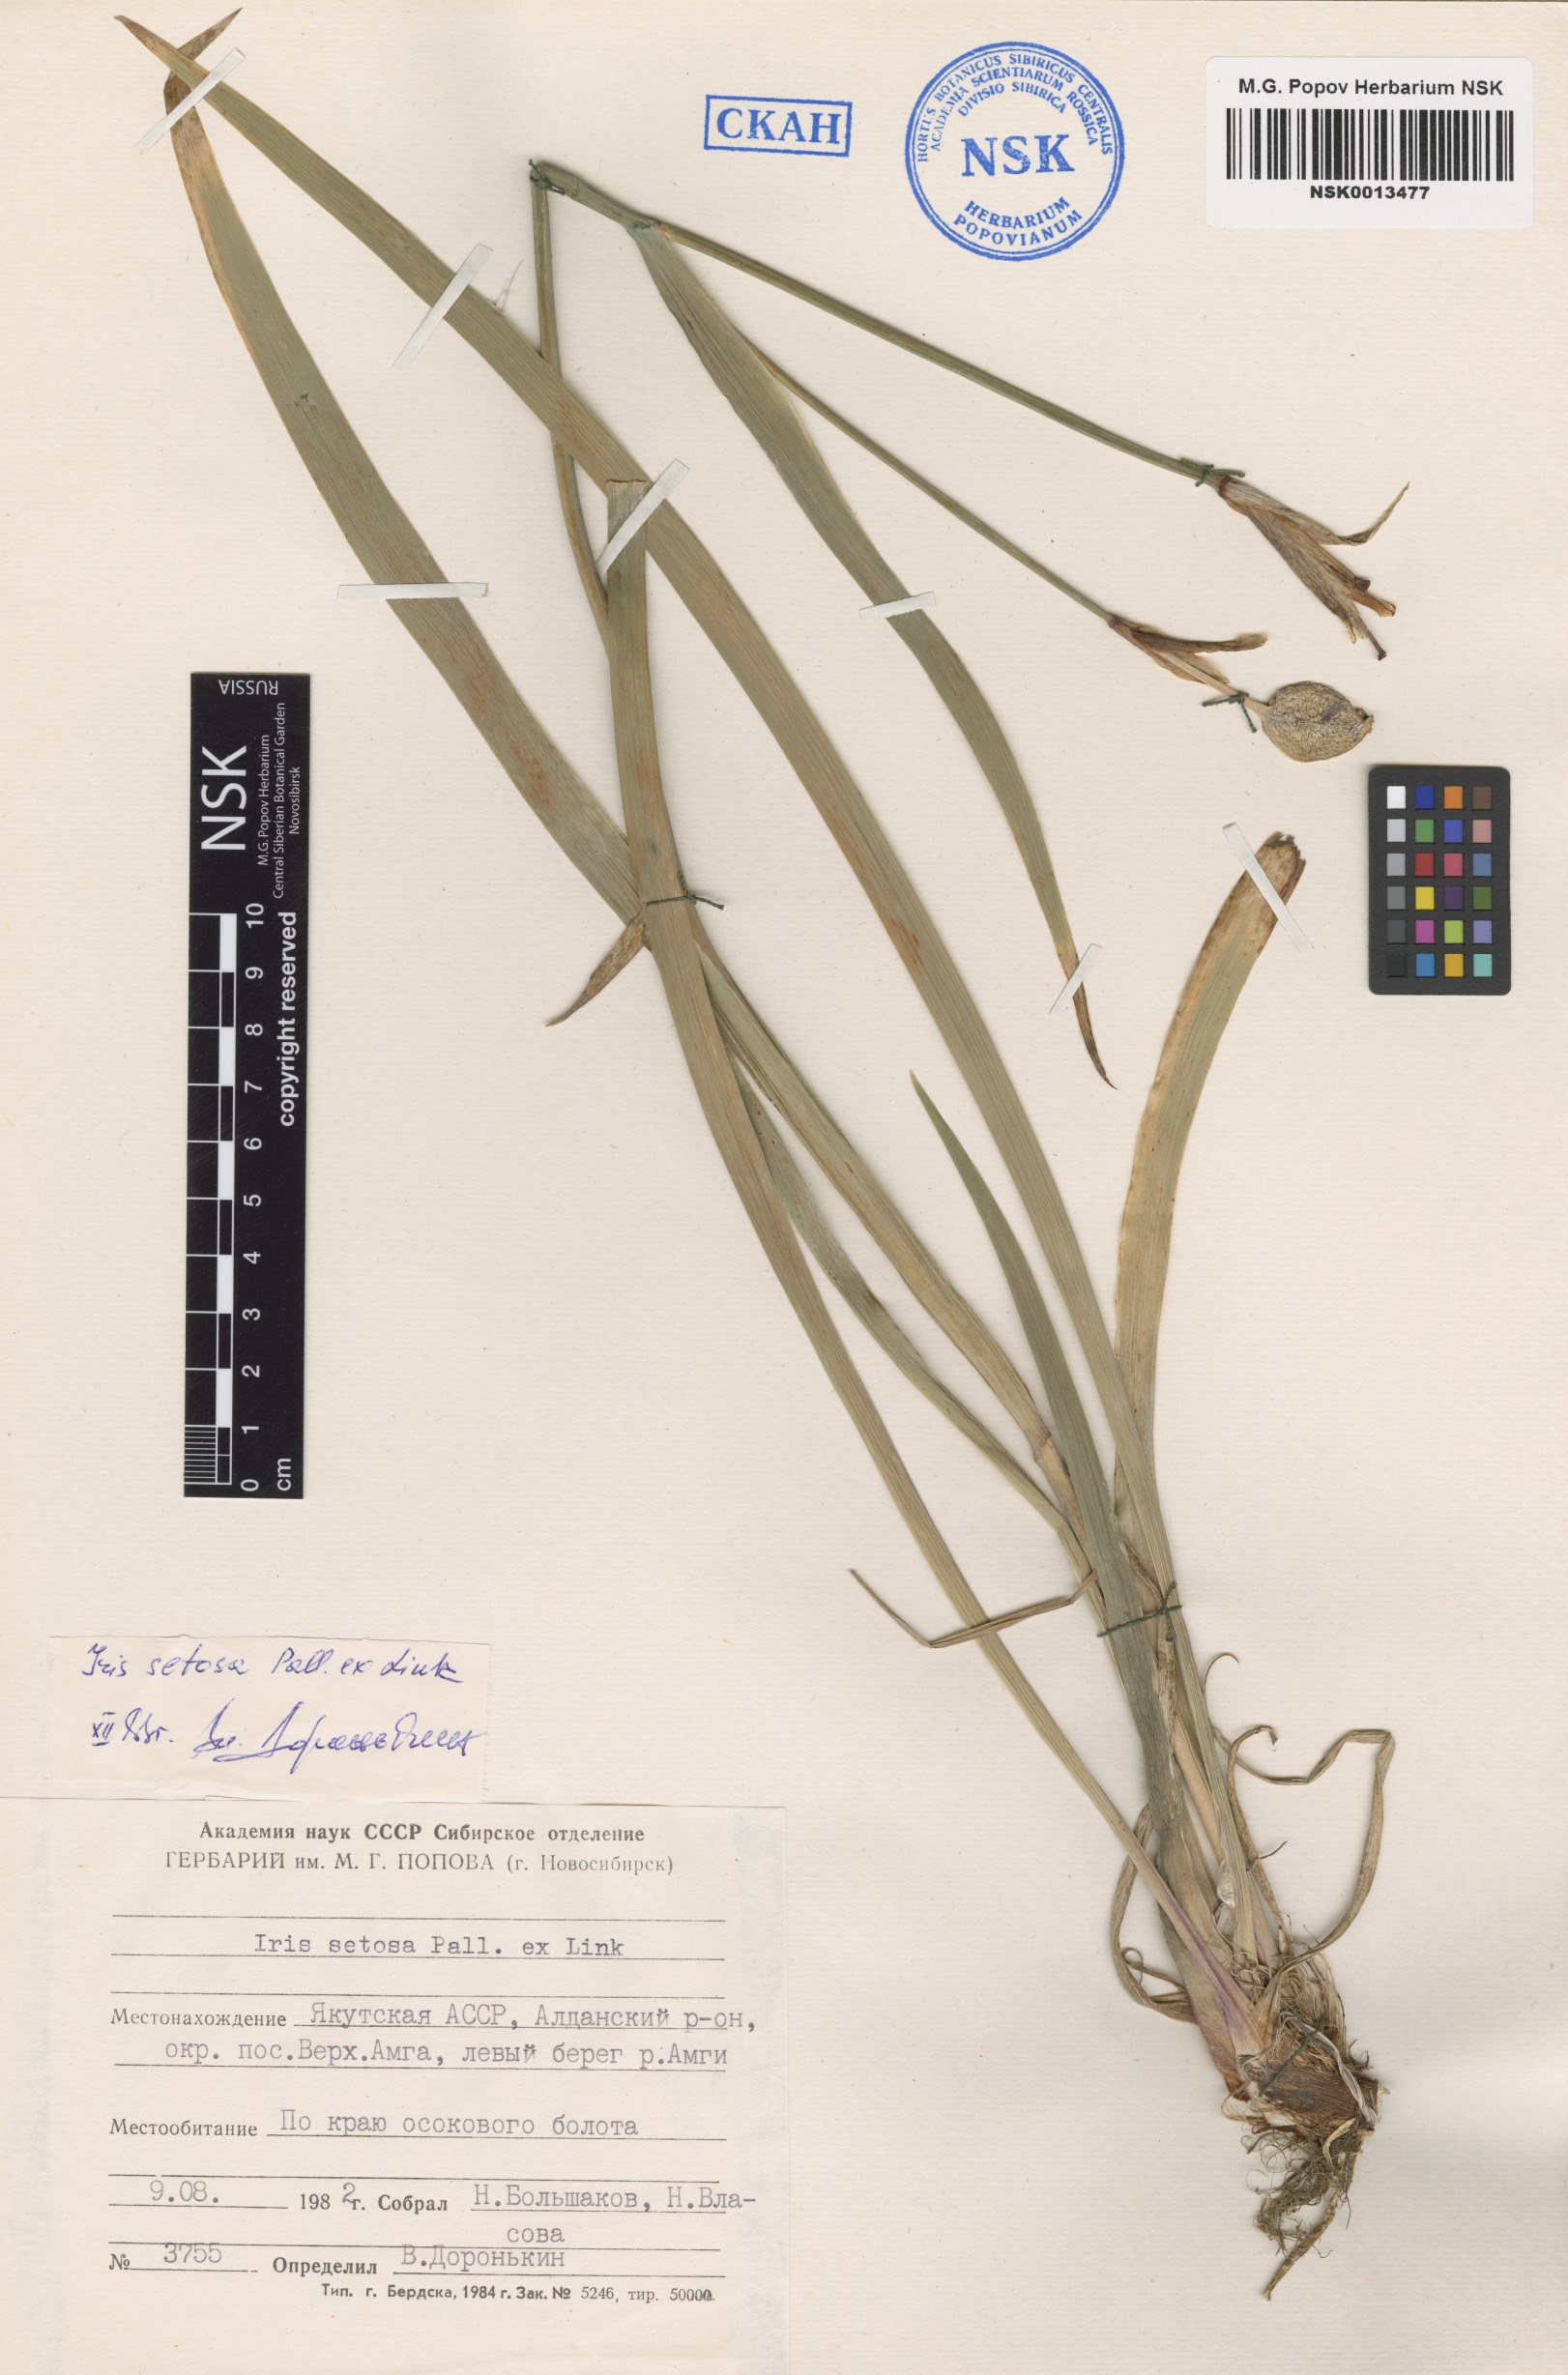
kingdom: Plantae
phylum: Tracheophyta
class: Liliopsida
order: Asparagales
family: Iridaceae
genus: Iris
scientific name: Iris setosa
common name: Arctic blue flag
